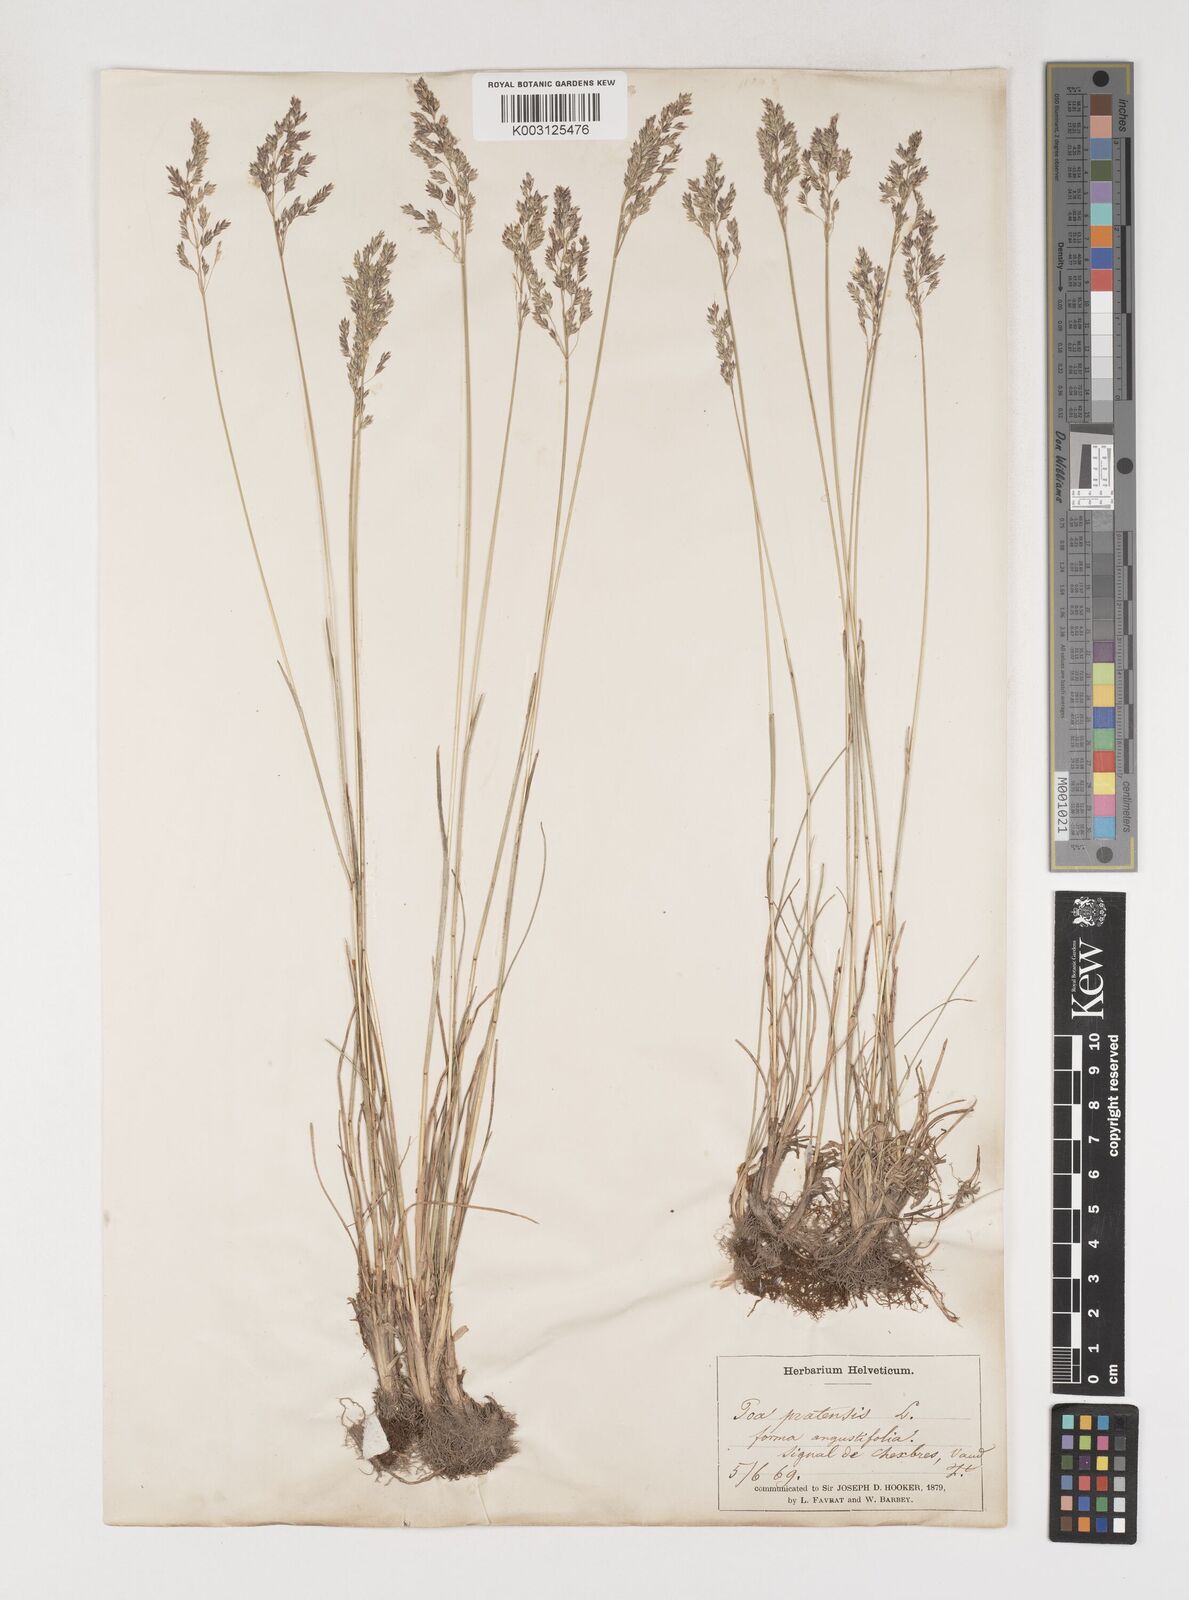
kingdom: Plantae
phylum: Tracheophyta
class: Liliopsida
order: Poales
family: Poaceae
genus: Poa
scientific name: Poa angustifolia
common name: Narrow-leaved meadow-grass
